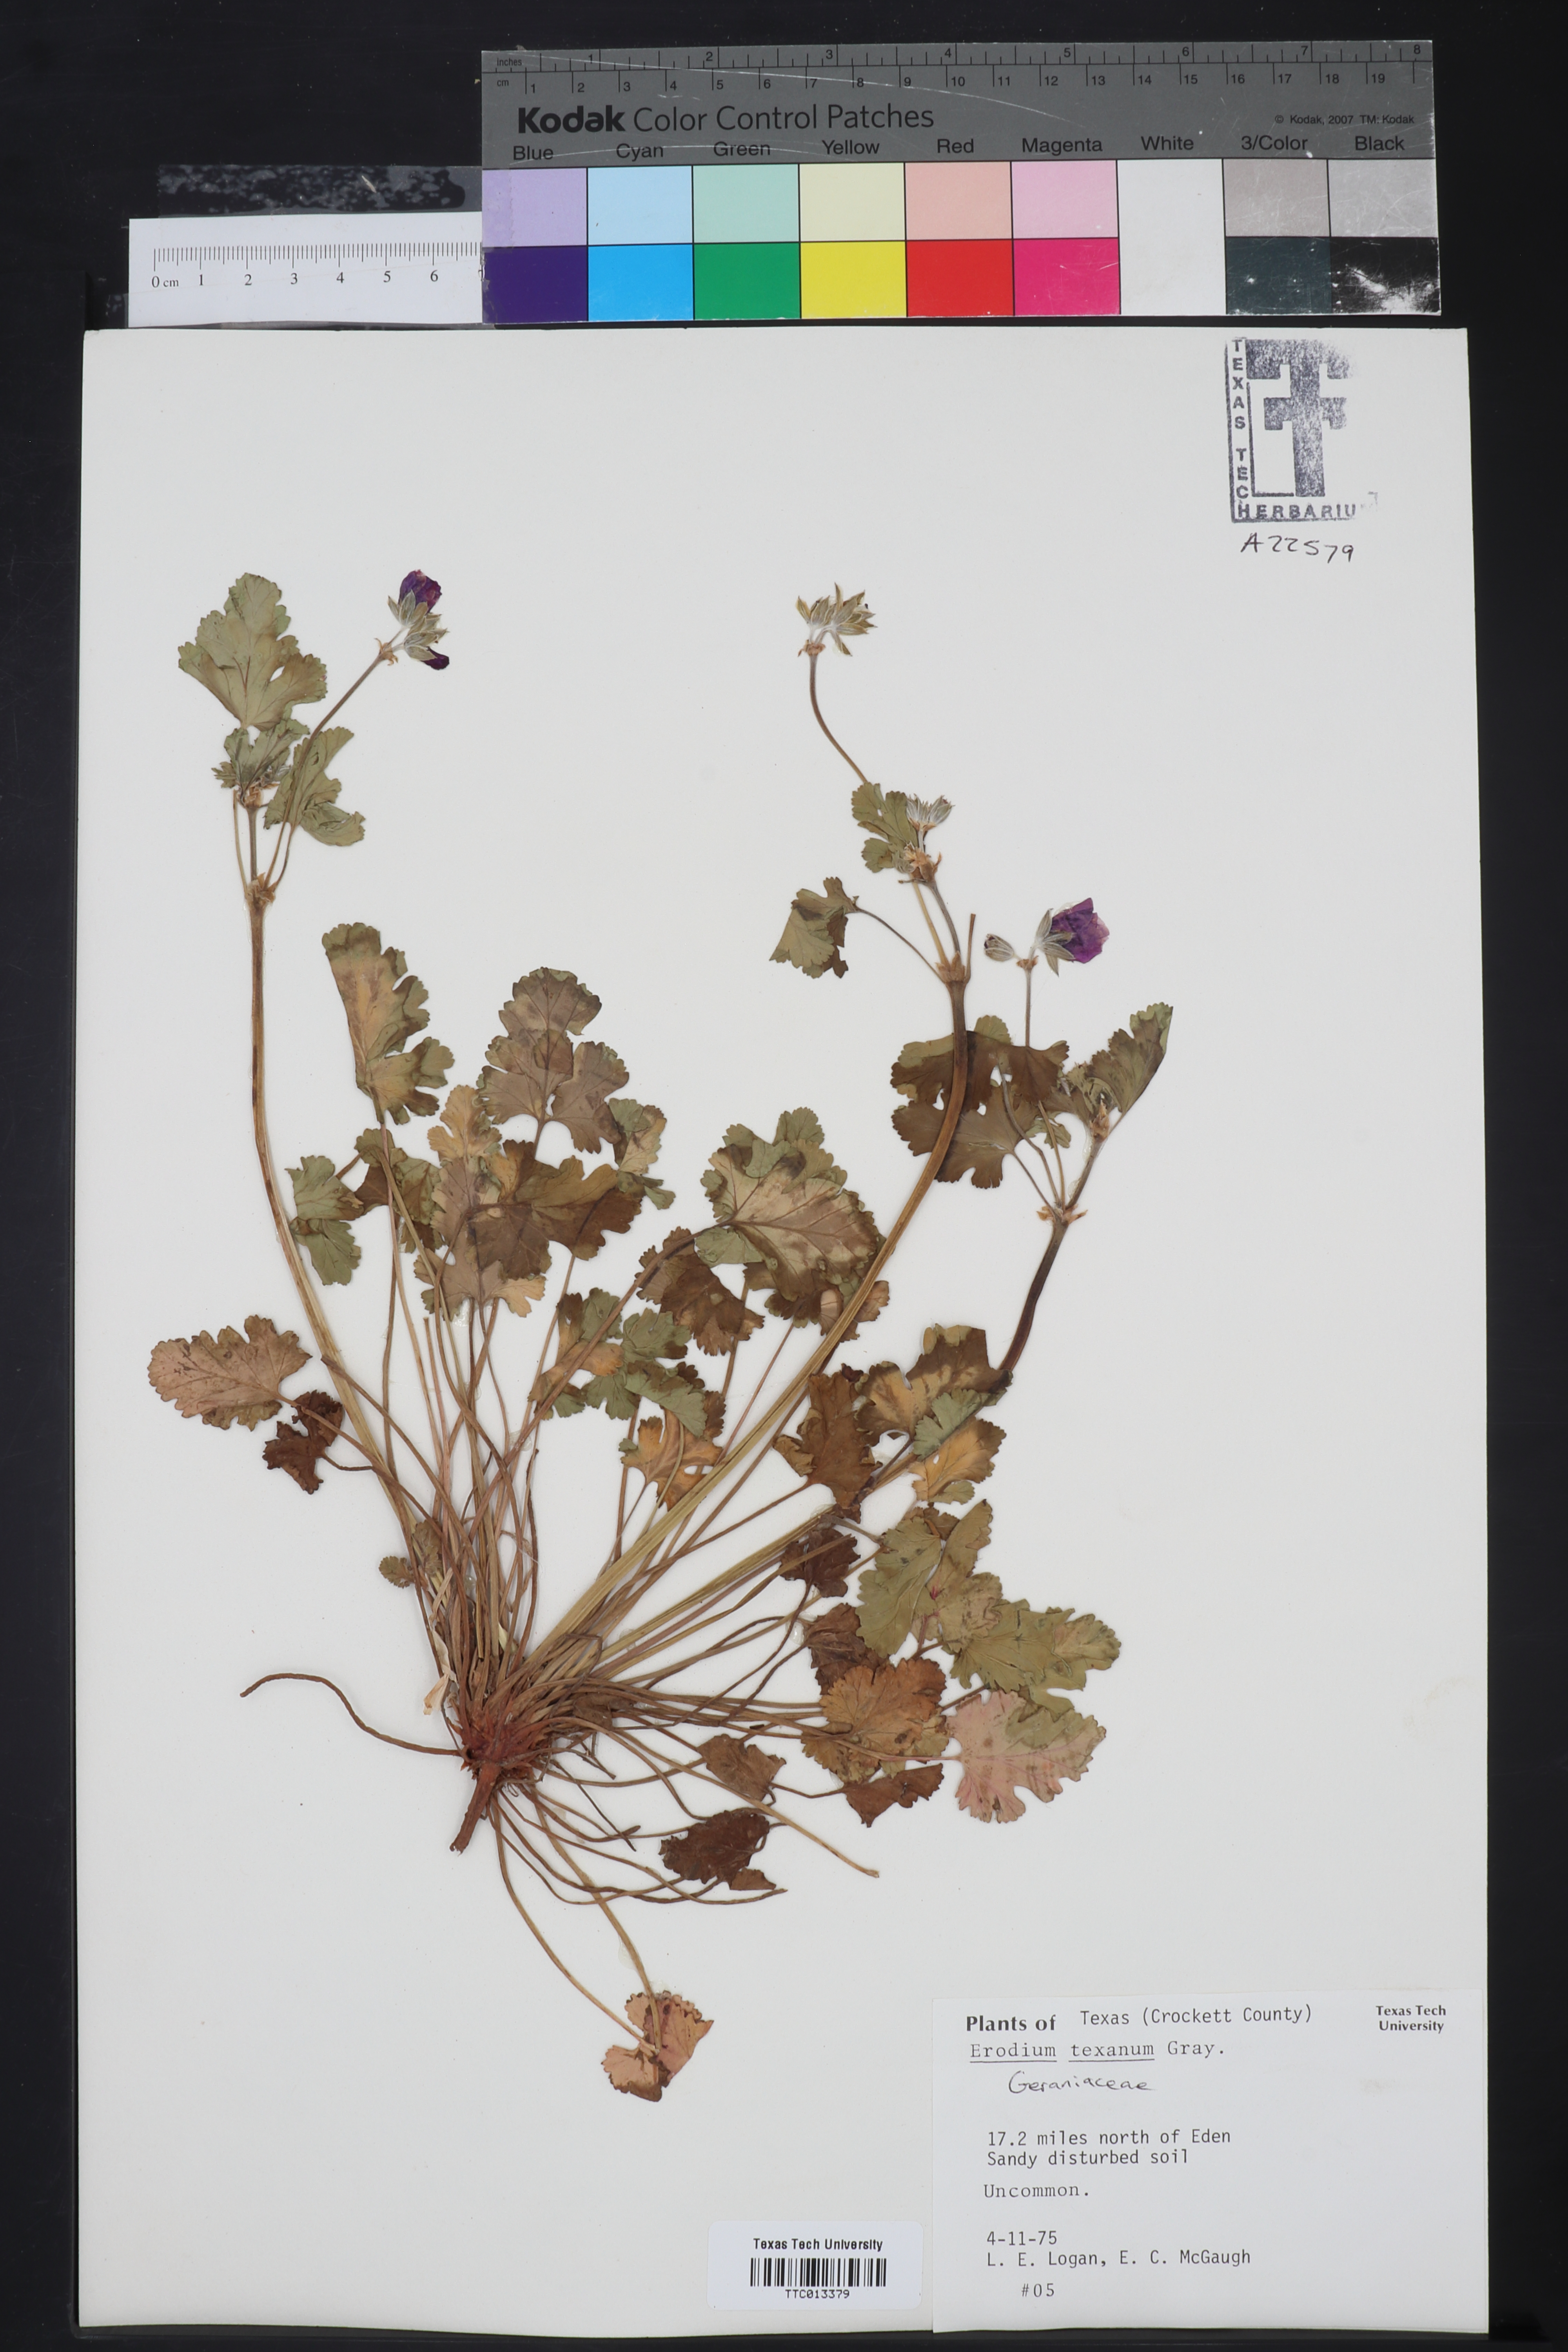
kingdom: Plantae
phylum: Tracheophyta
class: Magnoliopsida
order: Geraniales
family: Geraniaceae
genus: Erodium
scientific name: Erodium texanum
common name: Texas stork's-bill
